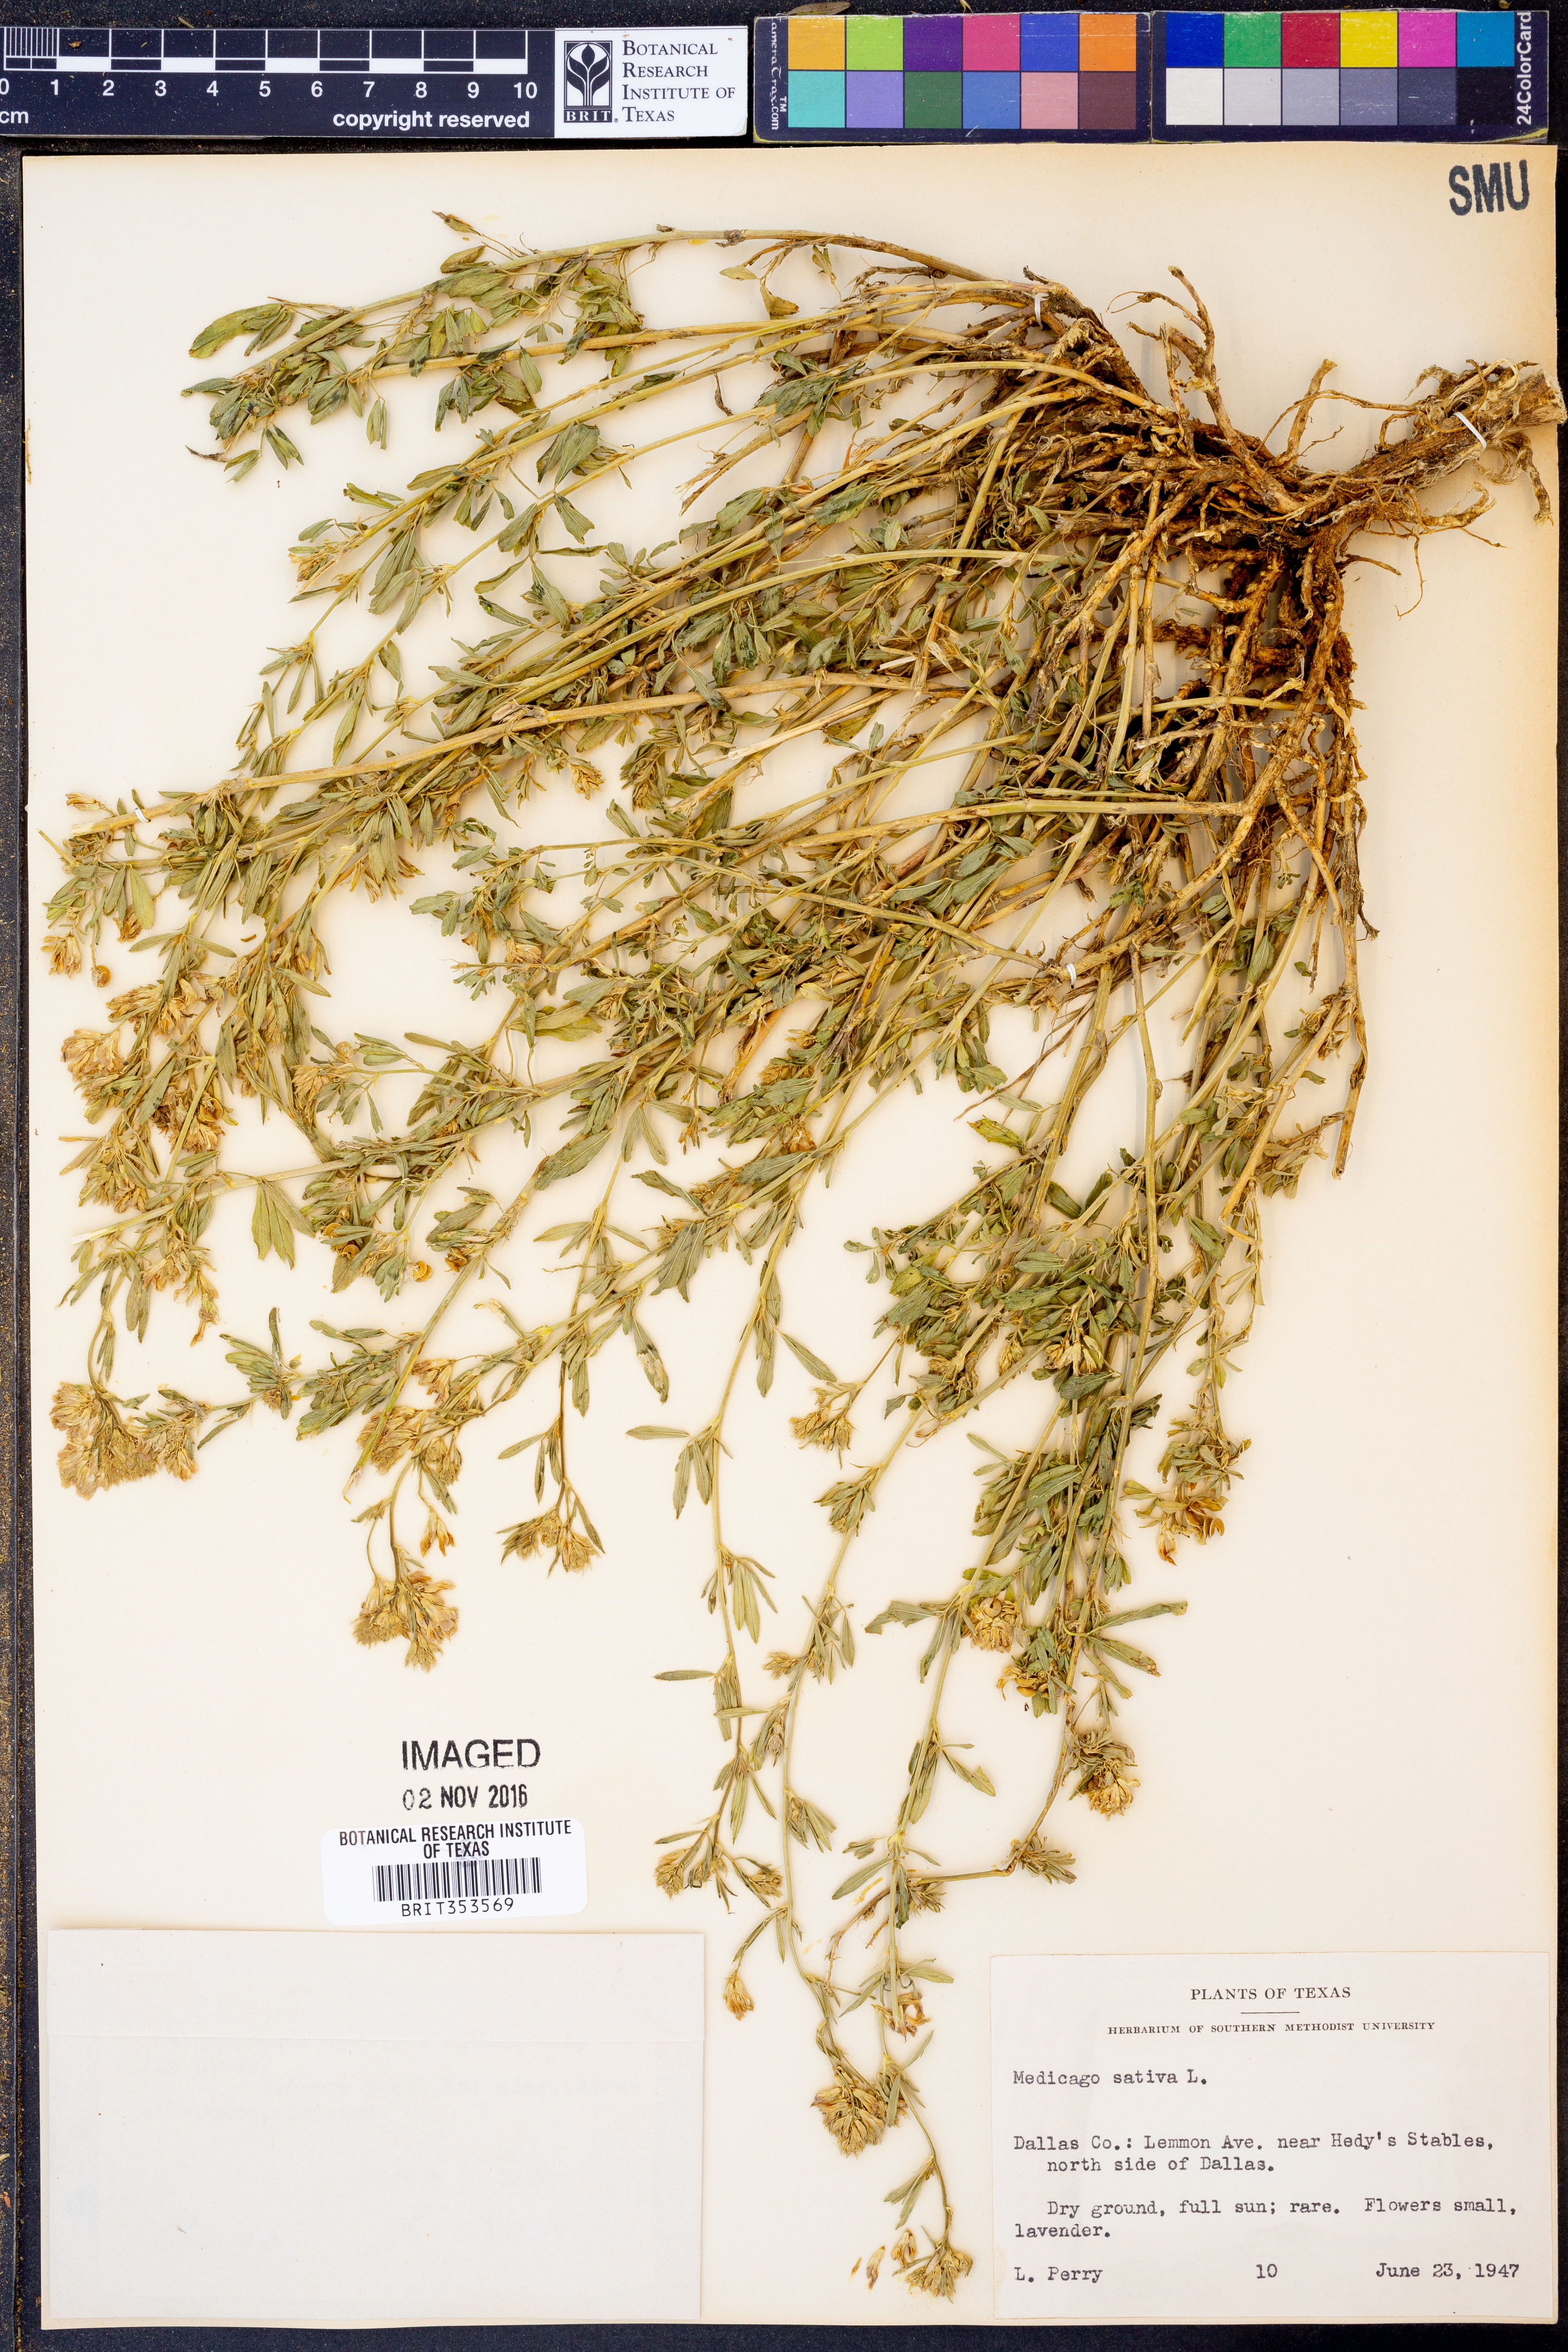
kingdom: Plantae
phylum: Tracheophyta
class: Magnoliopsida
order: Fabales
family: Fabaceae
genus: Medicago
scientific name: Medicago sativa
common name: Alfalfa
